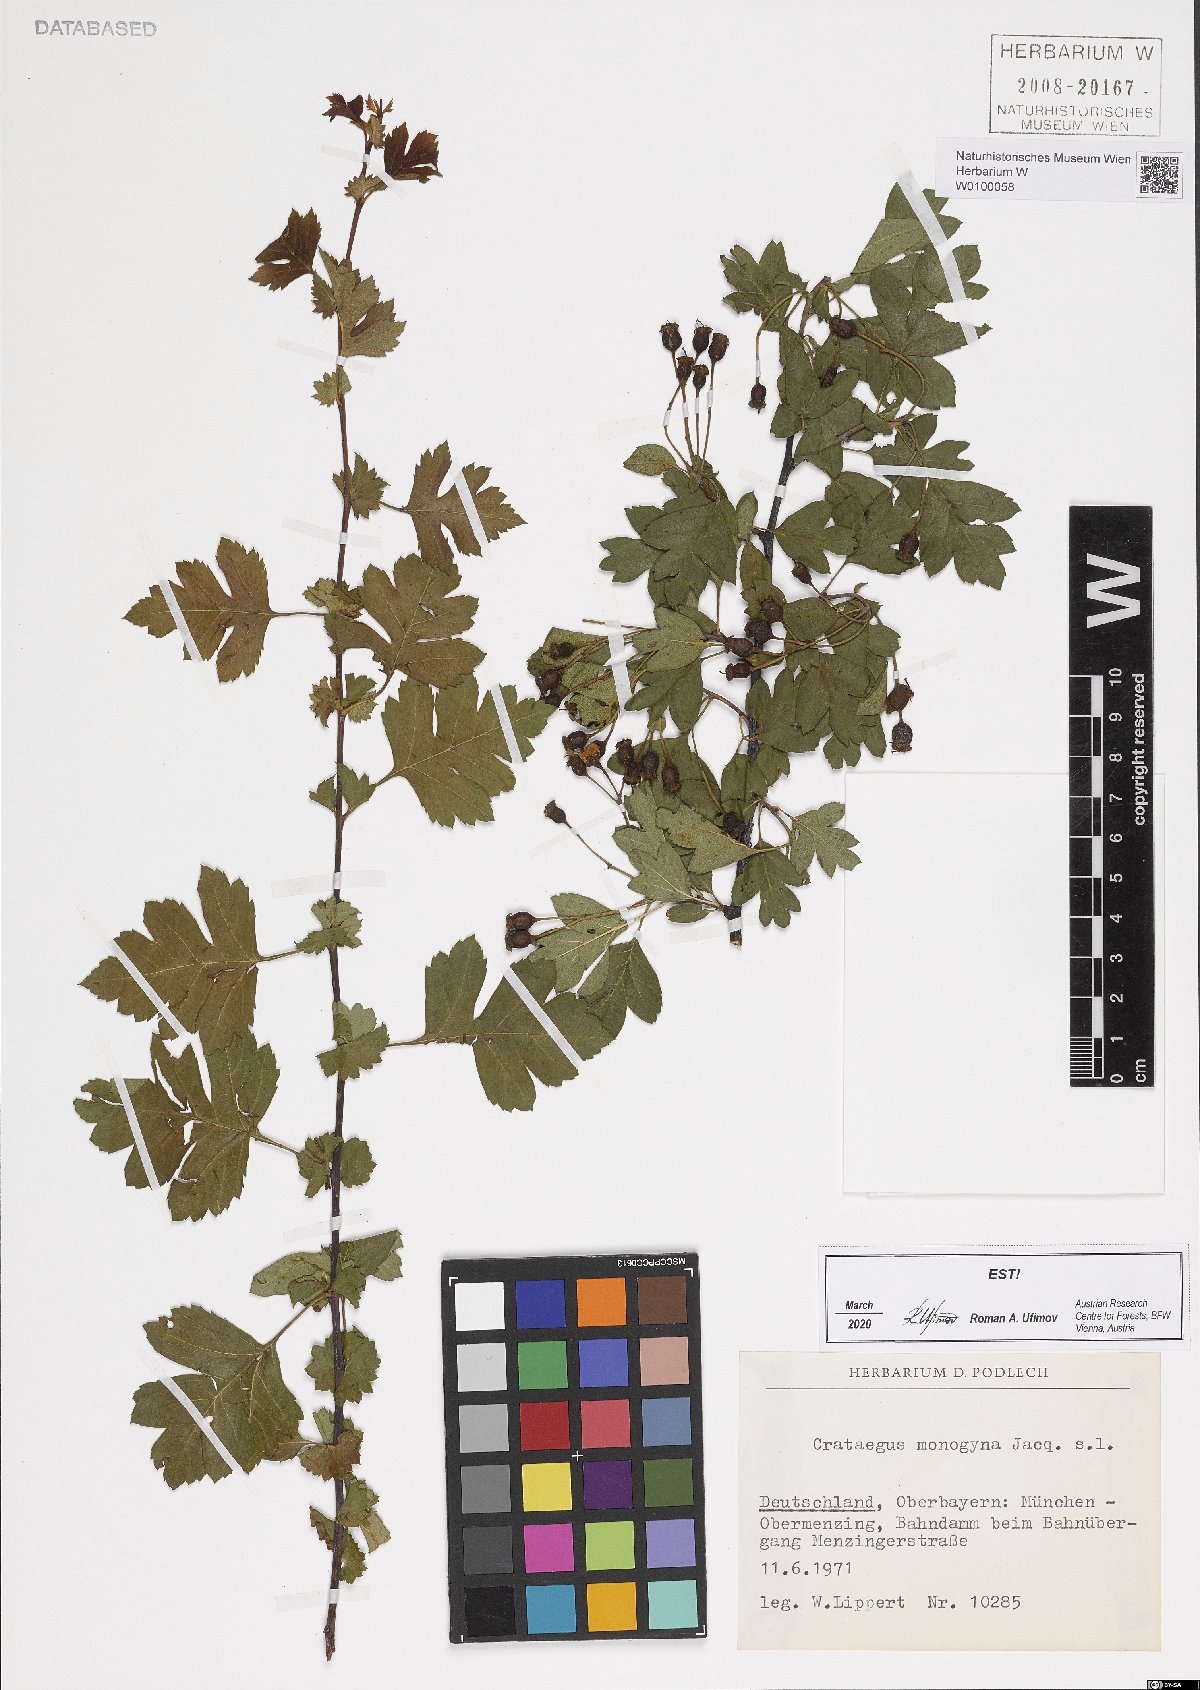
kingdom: Plantae
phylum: Tracheophyta
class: Magnoliopsida
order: Rosales
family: Rosaceae
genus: Crataegus
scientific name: Crataegus monogyna
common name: Hawthorn
